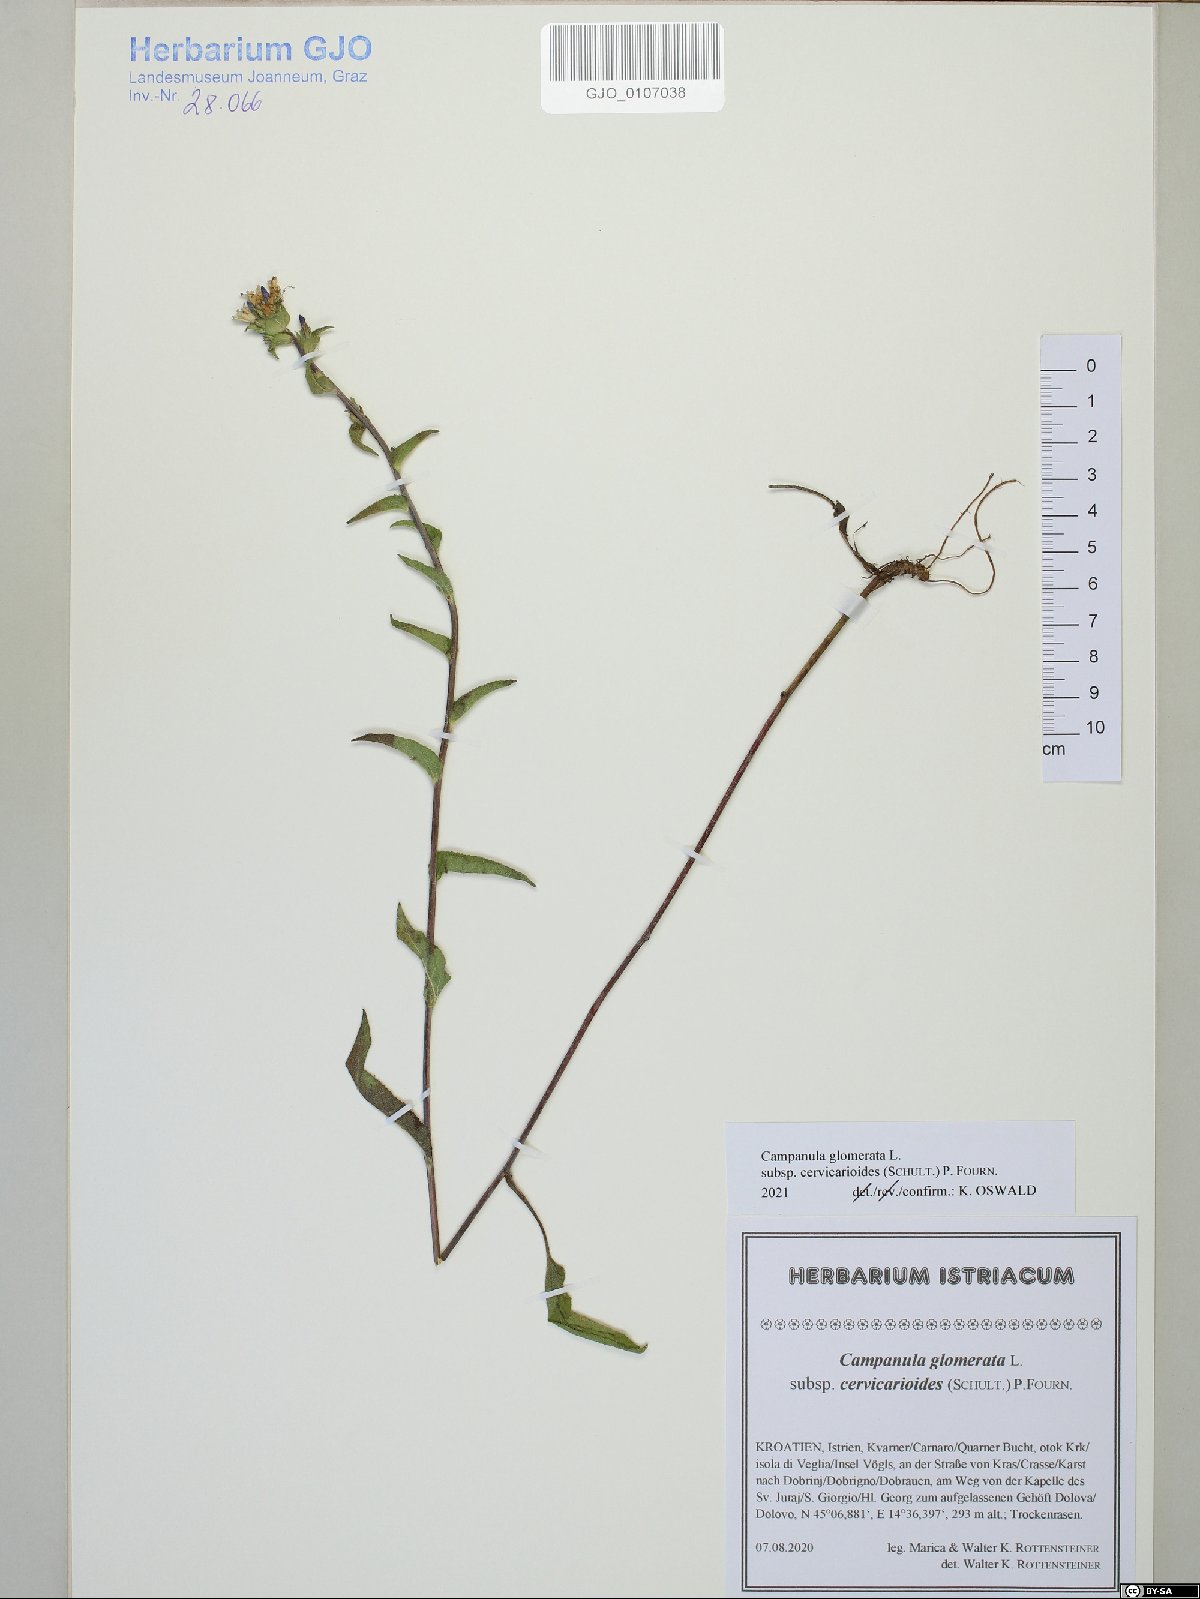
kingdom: Plantae
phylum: Tracheophyta
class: Magnoliopsida
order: Asterales
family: Campanulaceae
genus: Campanula
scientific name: Campanula glomerata
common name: Clustered bellflower
